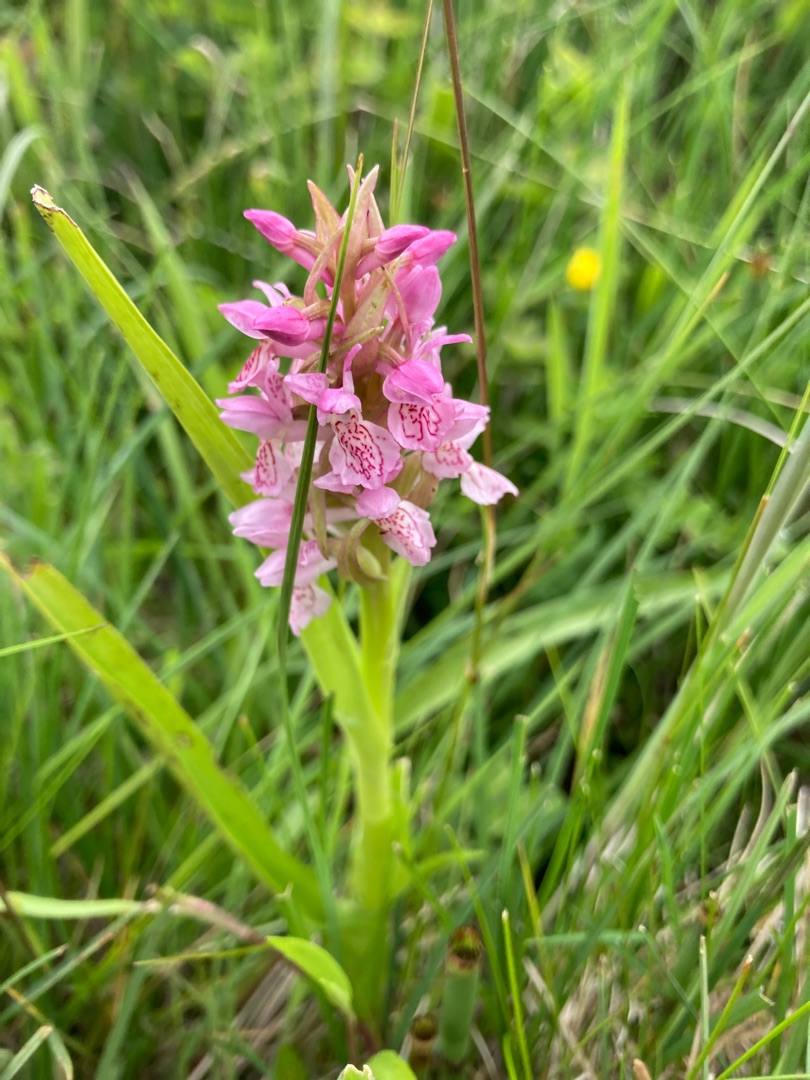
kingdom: Plantae
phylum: Tracheophyta
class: Liliopsida
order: Asparagales
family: Orchidaceae
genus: Dactylorhiza
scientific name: Dactylorhiza incarnata
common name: Kødfarvet gøgeurt
